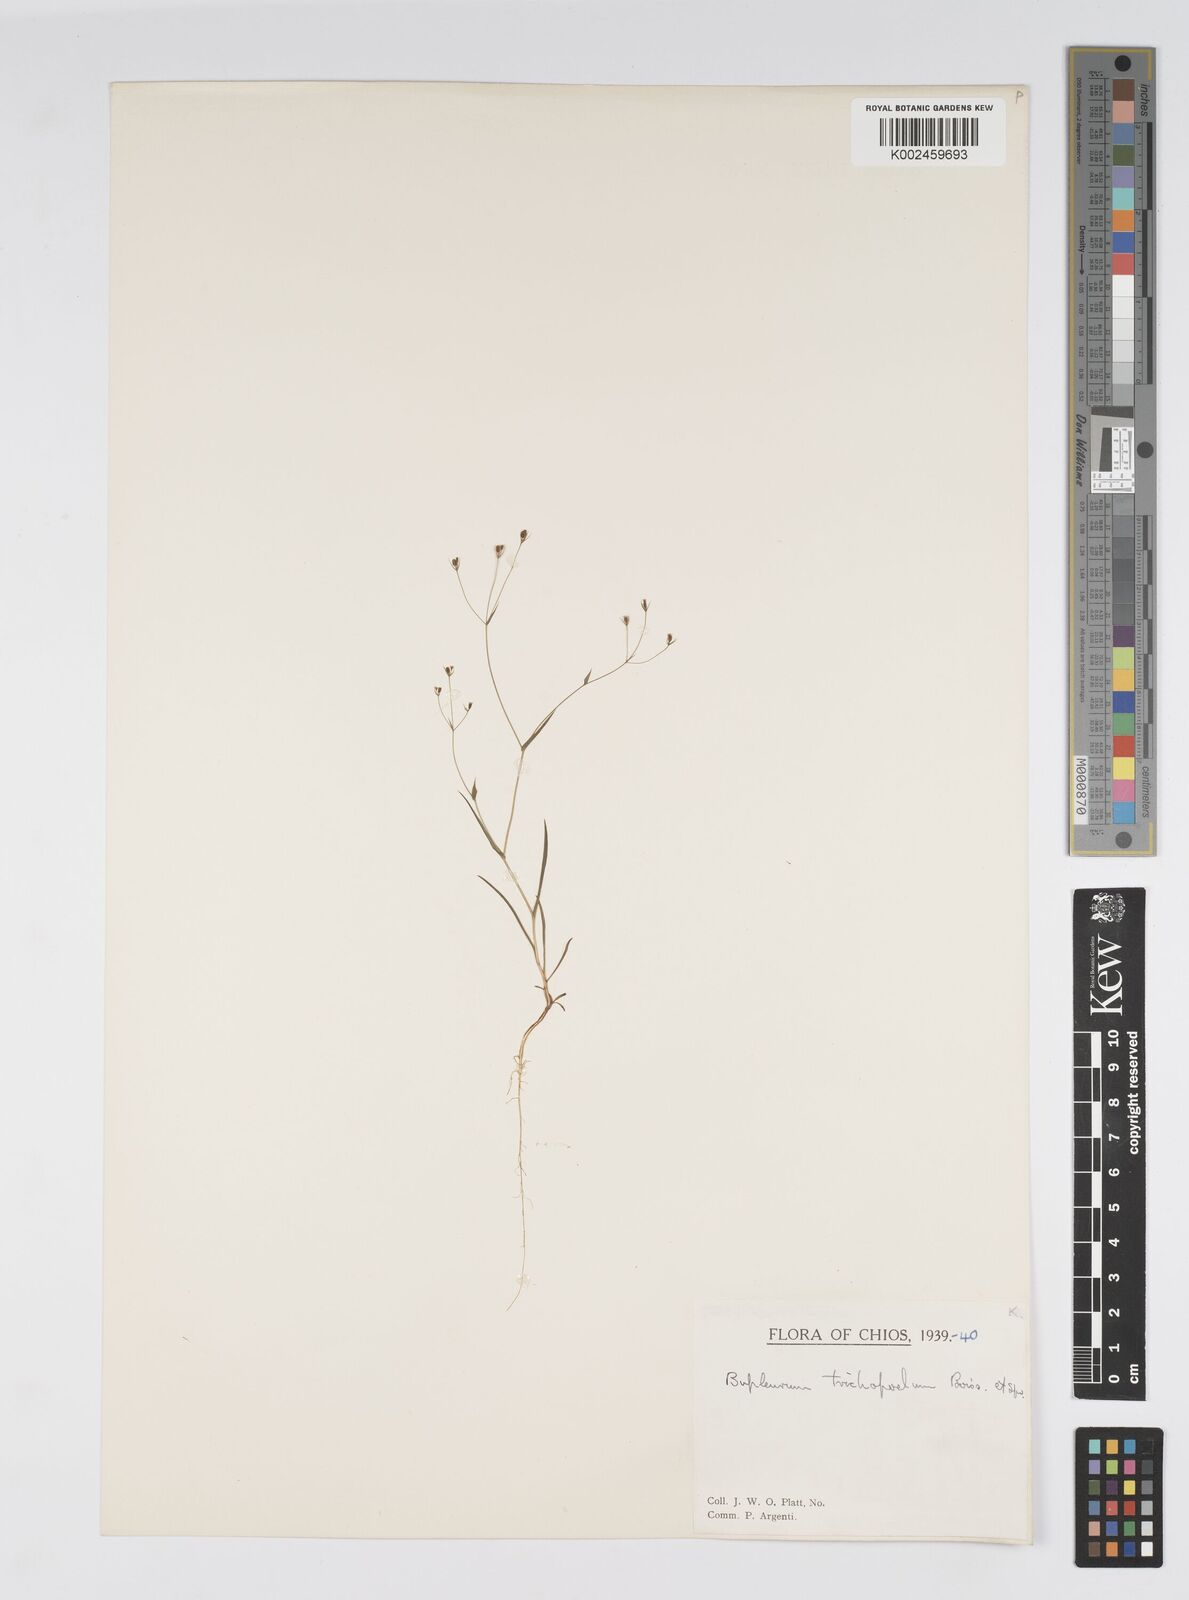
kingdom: Plantae
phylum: Tracheophyta
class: Magnoliopsida
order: Apiales
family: Apiaceae
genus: Bupleurum
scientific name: Bupleurum trichopodum
